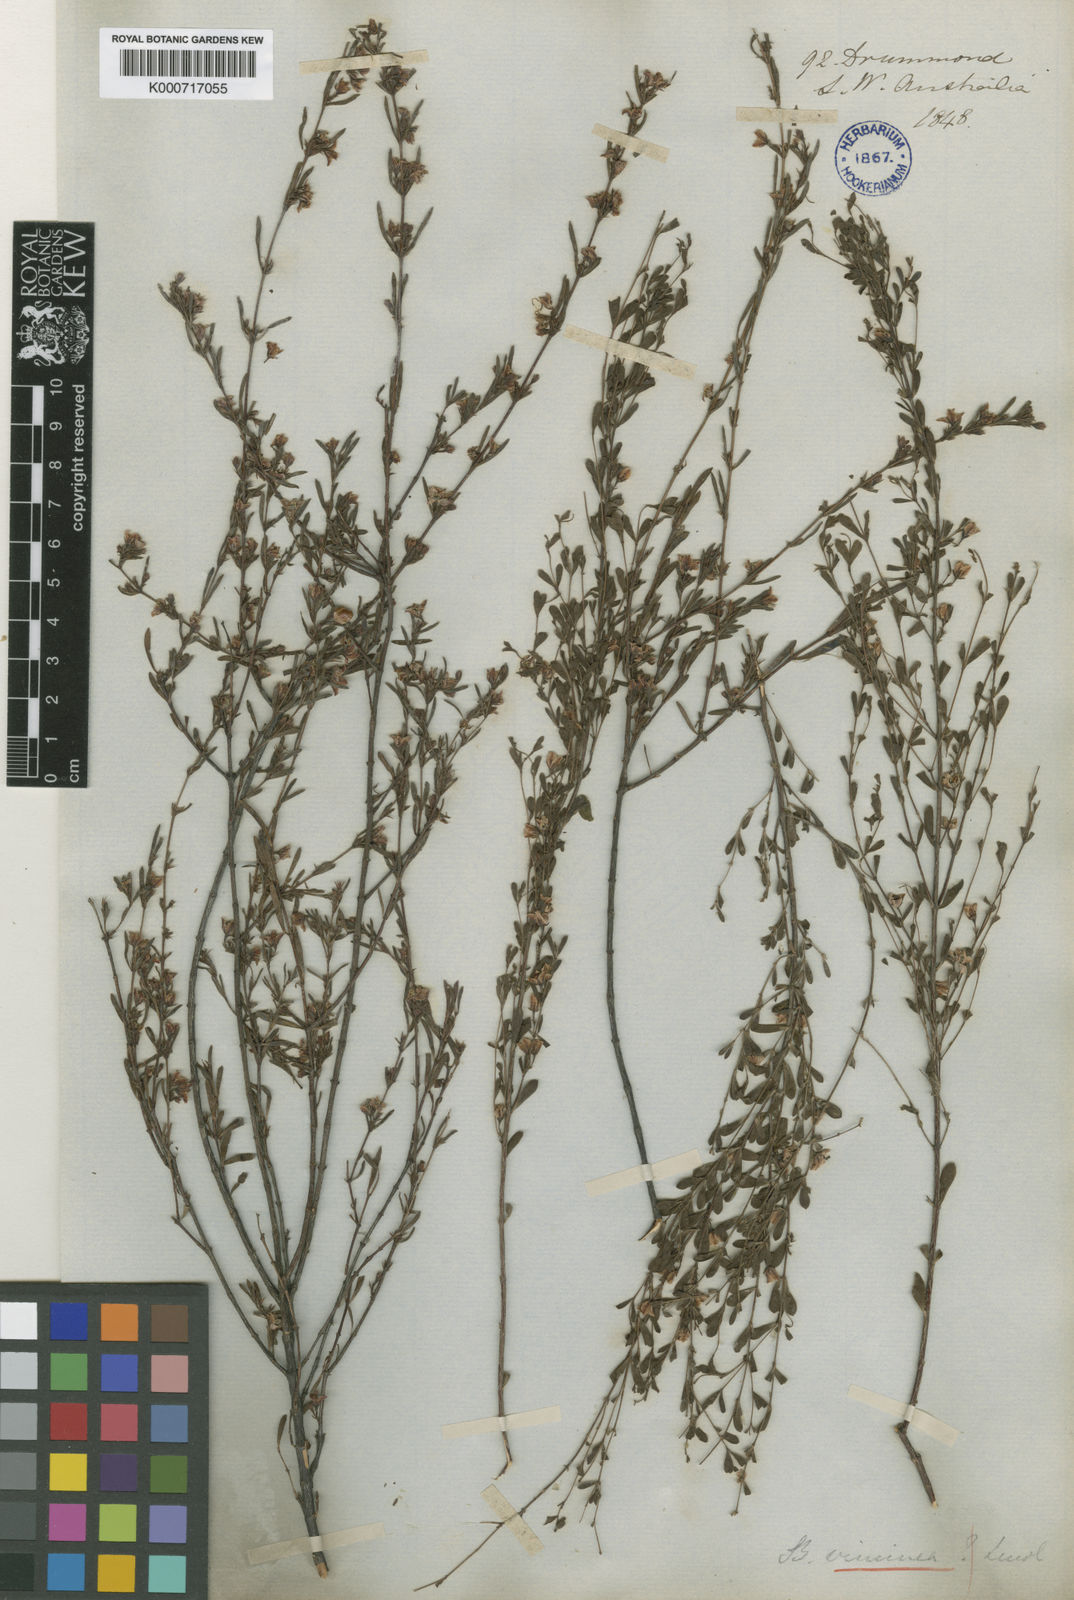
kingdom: Plantae
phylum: Tracheophyta
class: Magnoliopsida
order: Sapindales
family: Rutaceae
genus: Boronia
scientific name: Boronia crenulata
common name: Aniseed boronia
